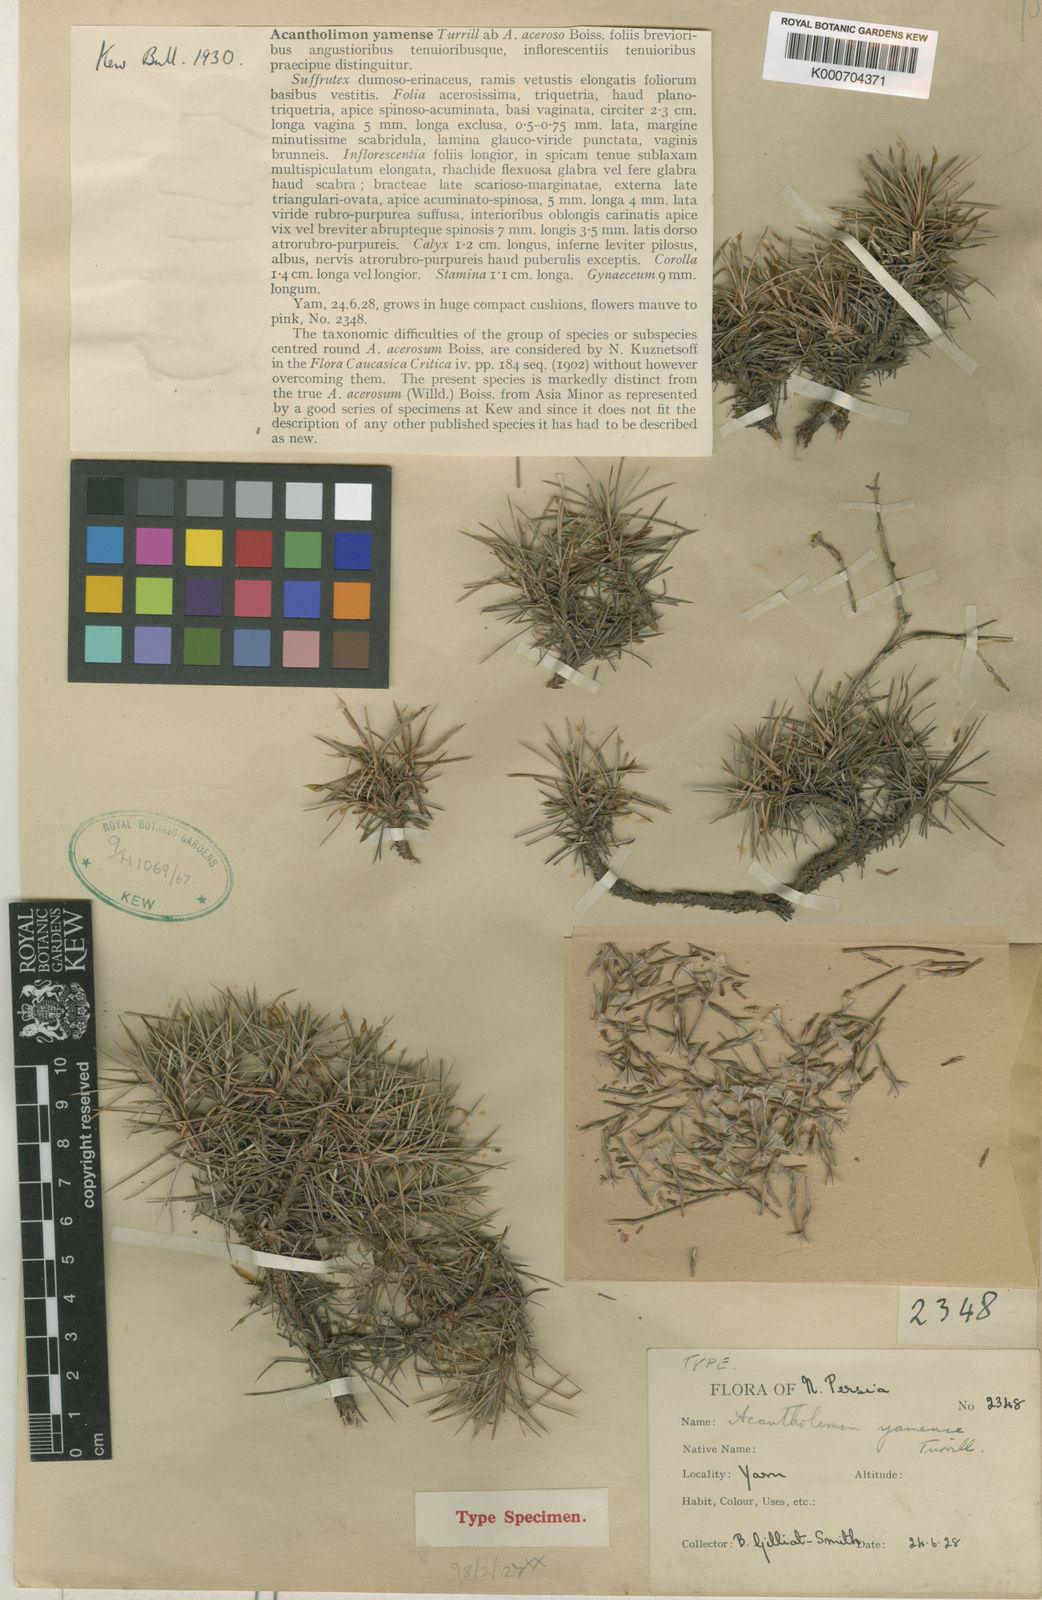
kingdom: Plantae
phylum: Tracheophyta
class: Magnoliopsida
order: Caryophyllales
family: Plumbaginaceae
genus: Acantholimon
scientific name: Acantholimon yamense
